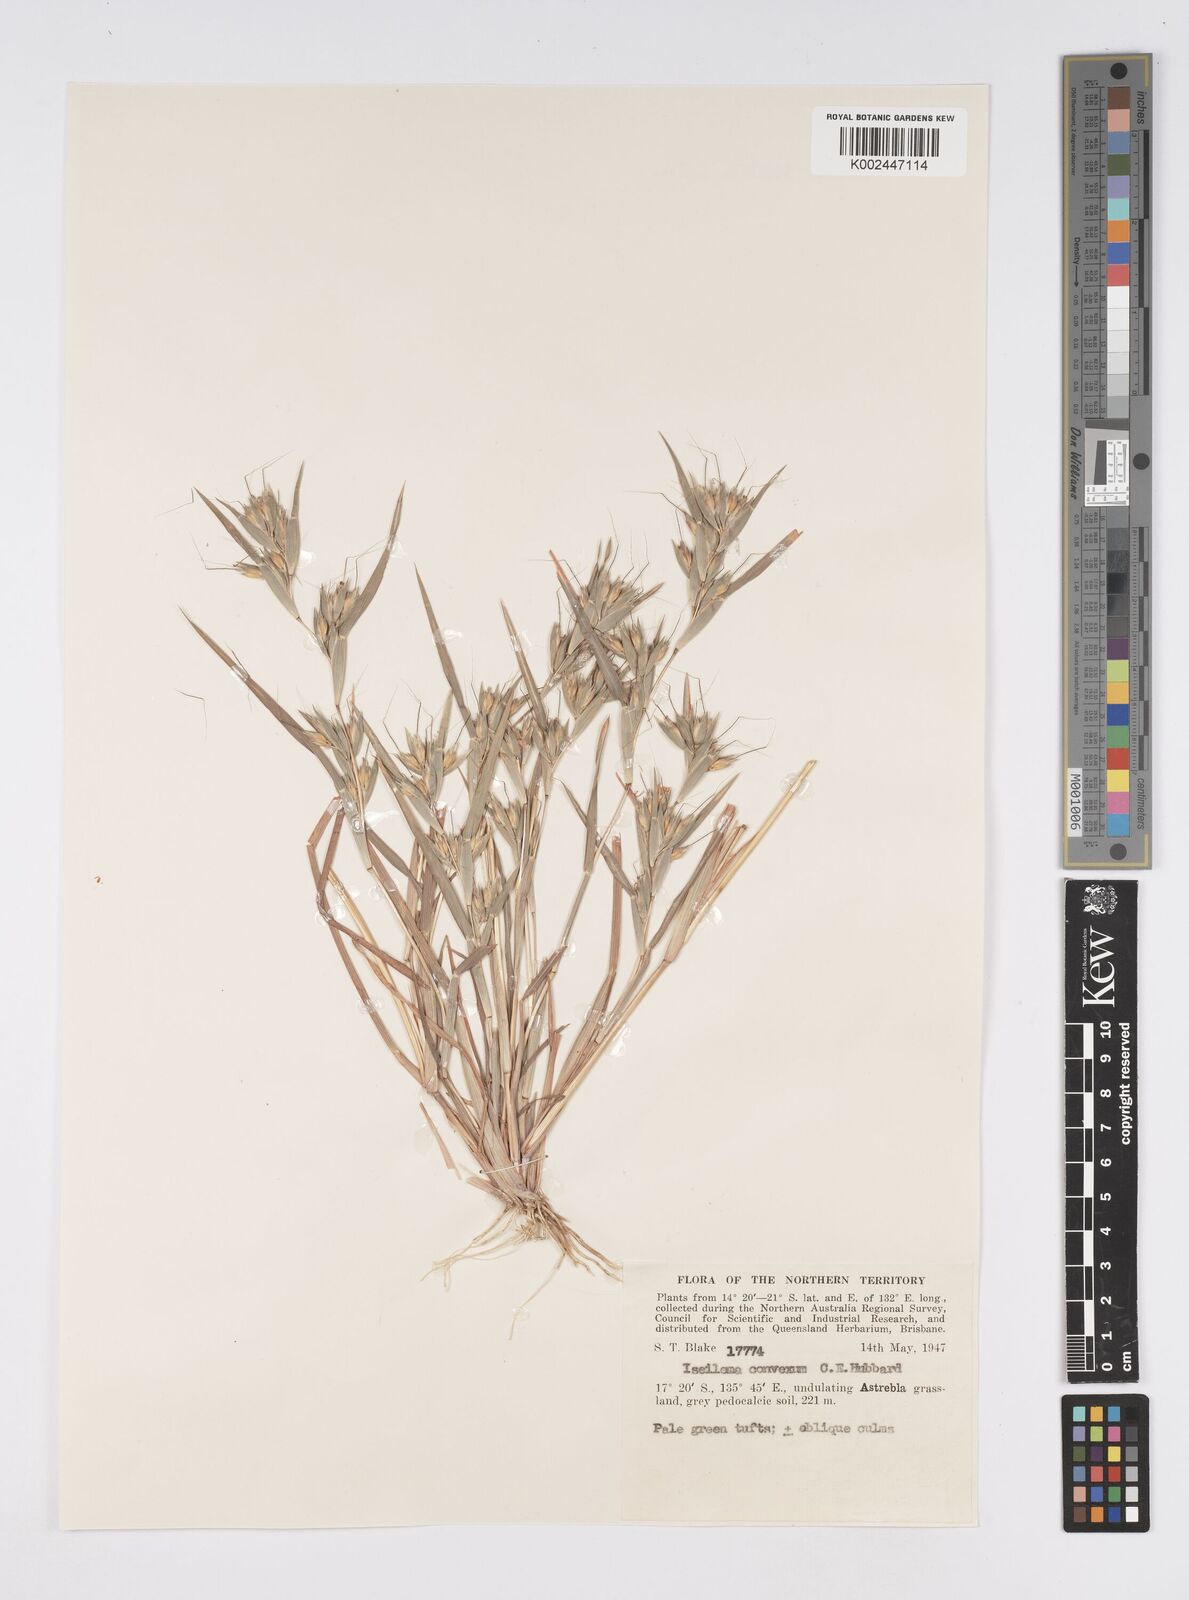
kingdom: Plantae
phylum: Tracheophyta
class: Liliopsida
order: Poales
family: Poaceae
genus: Iseilema
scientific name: Iseilema convexum
